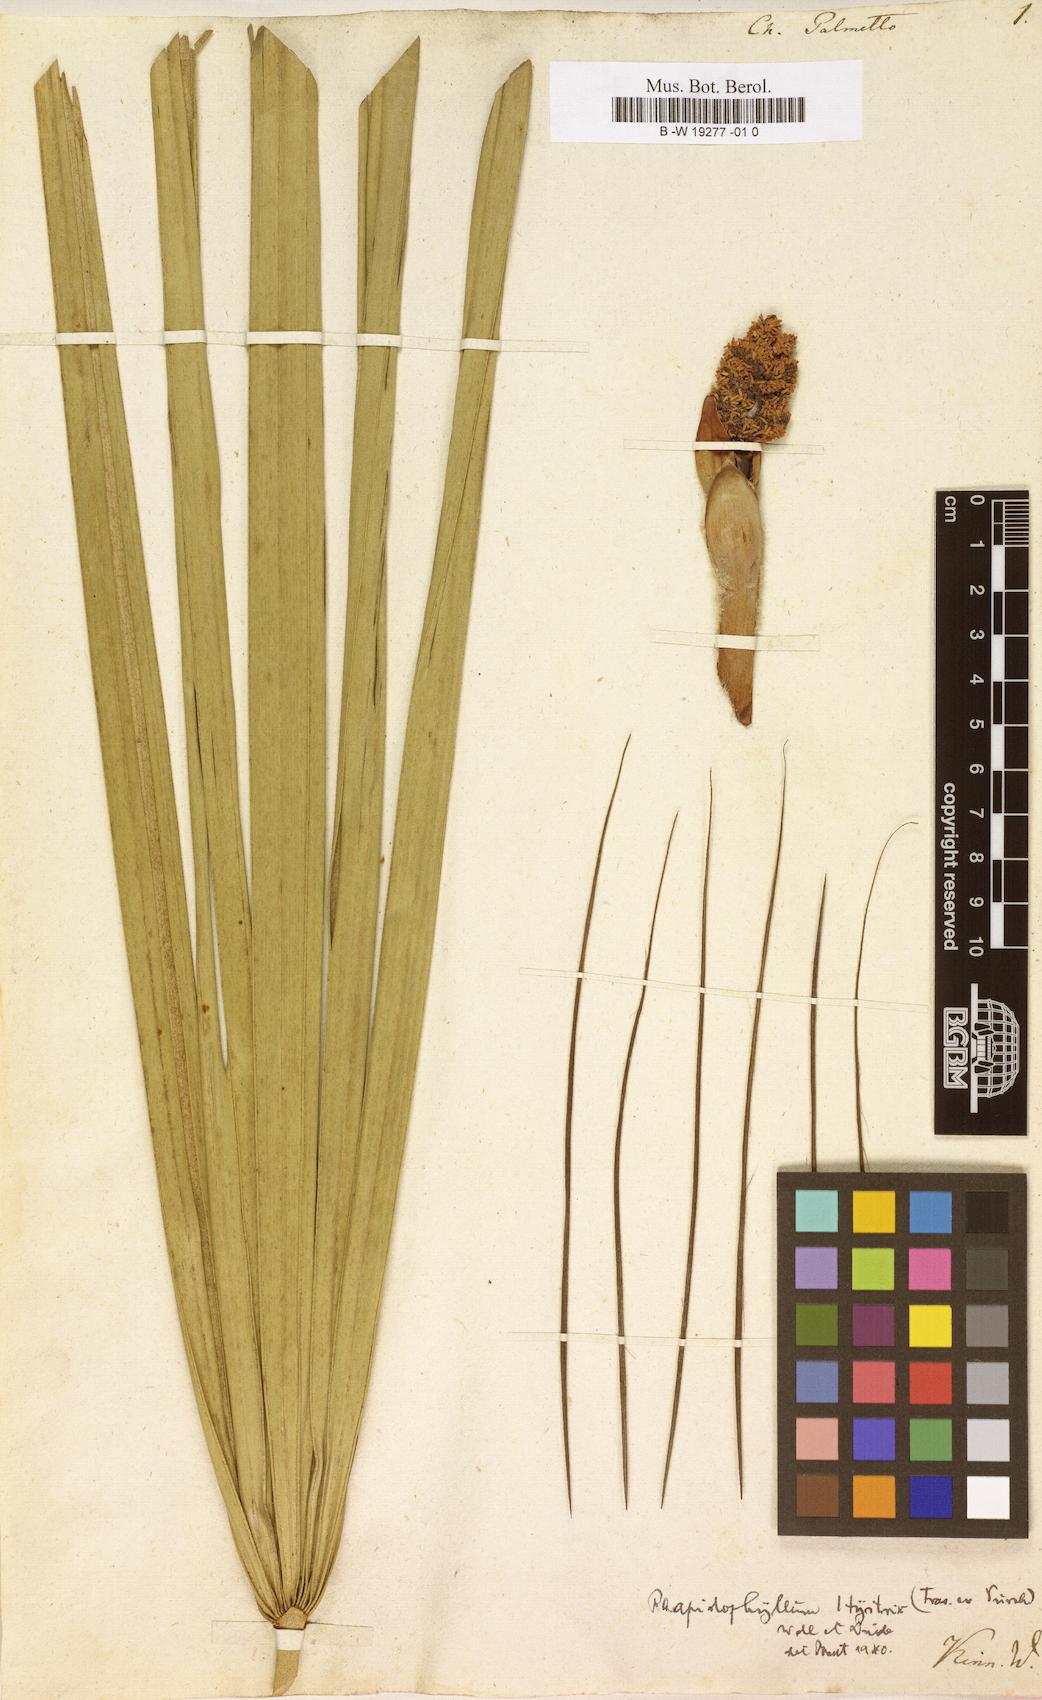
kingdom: Plantae
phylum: Tracheophyta
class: Liliopsida
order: Arecales
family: Arecaceae
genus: Sabal
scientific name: Sabal palmetto
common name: Blue palmetto
